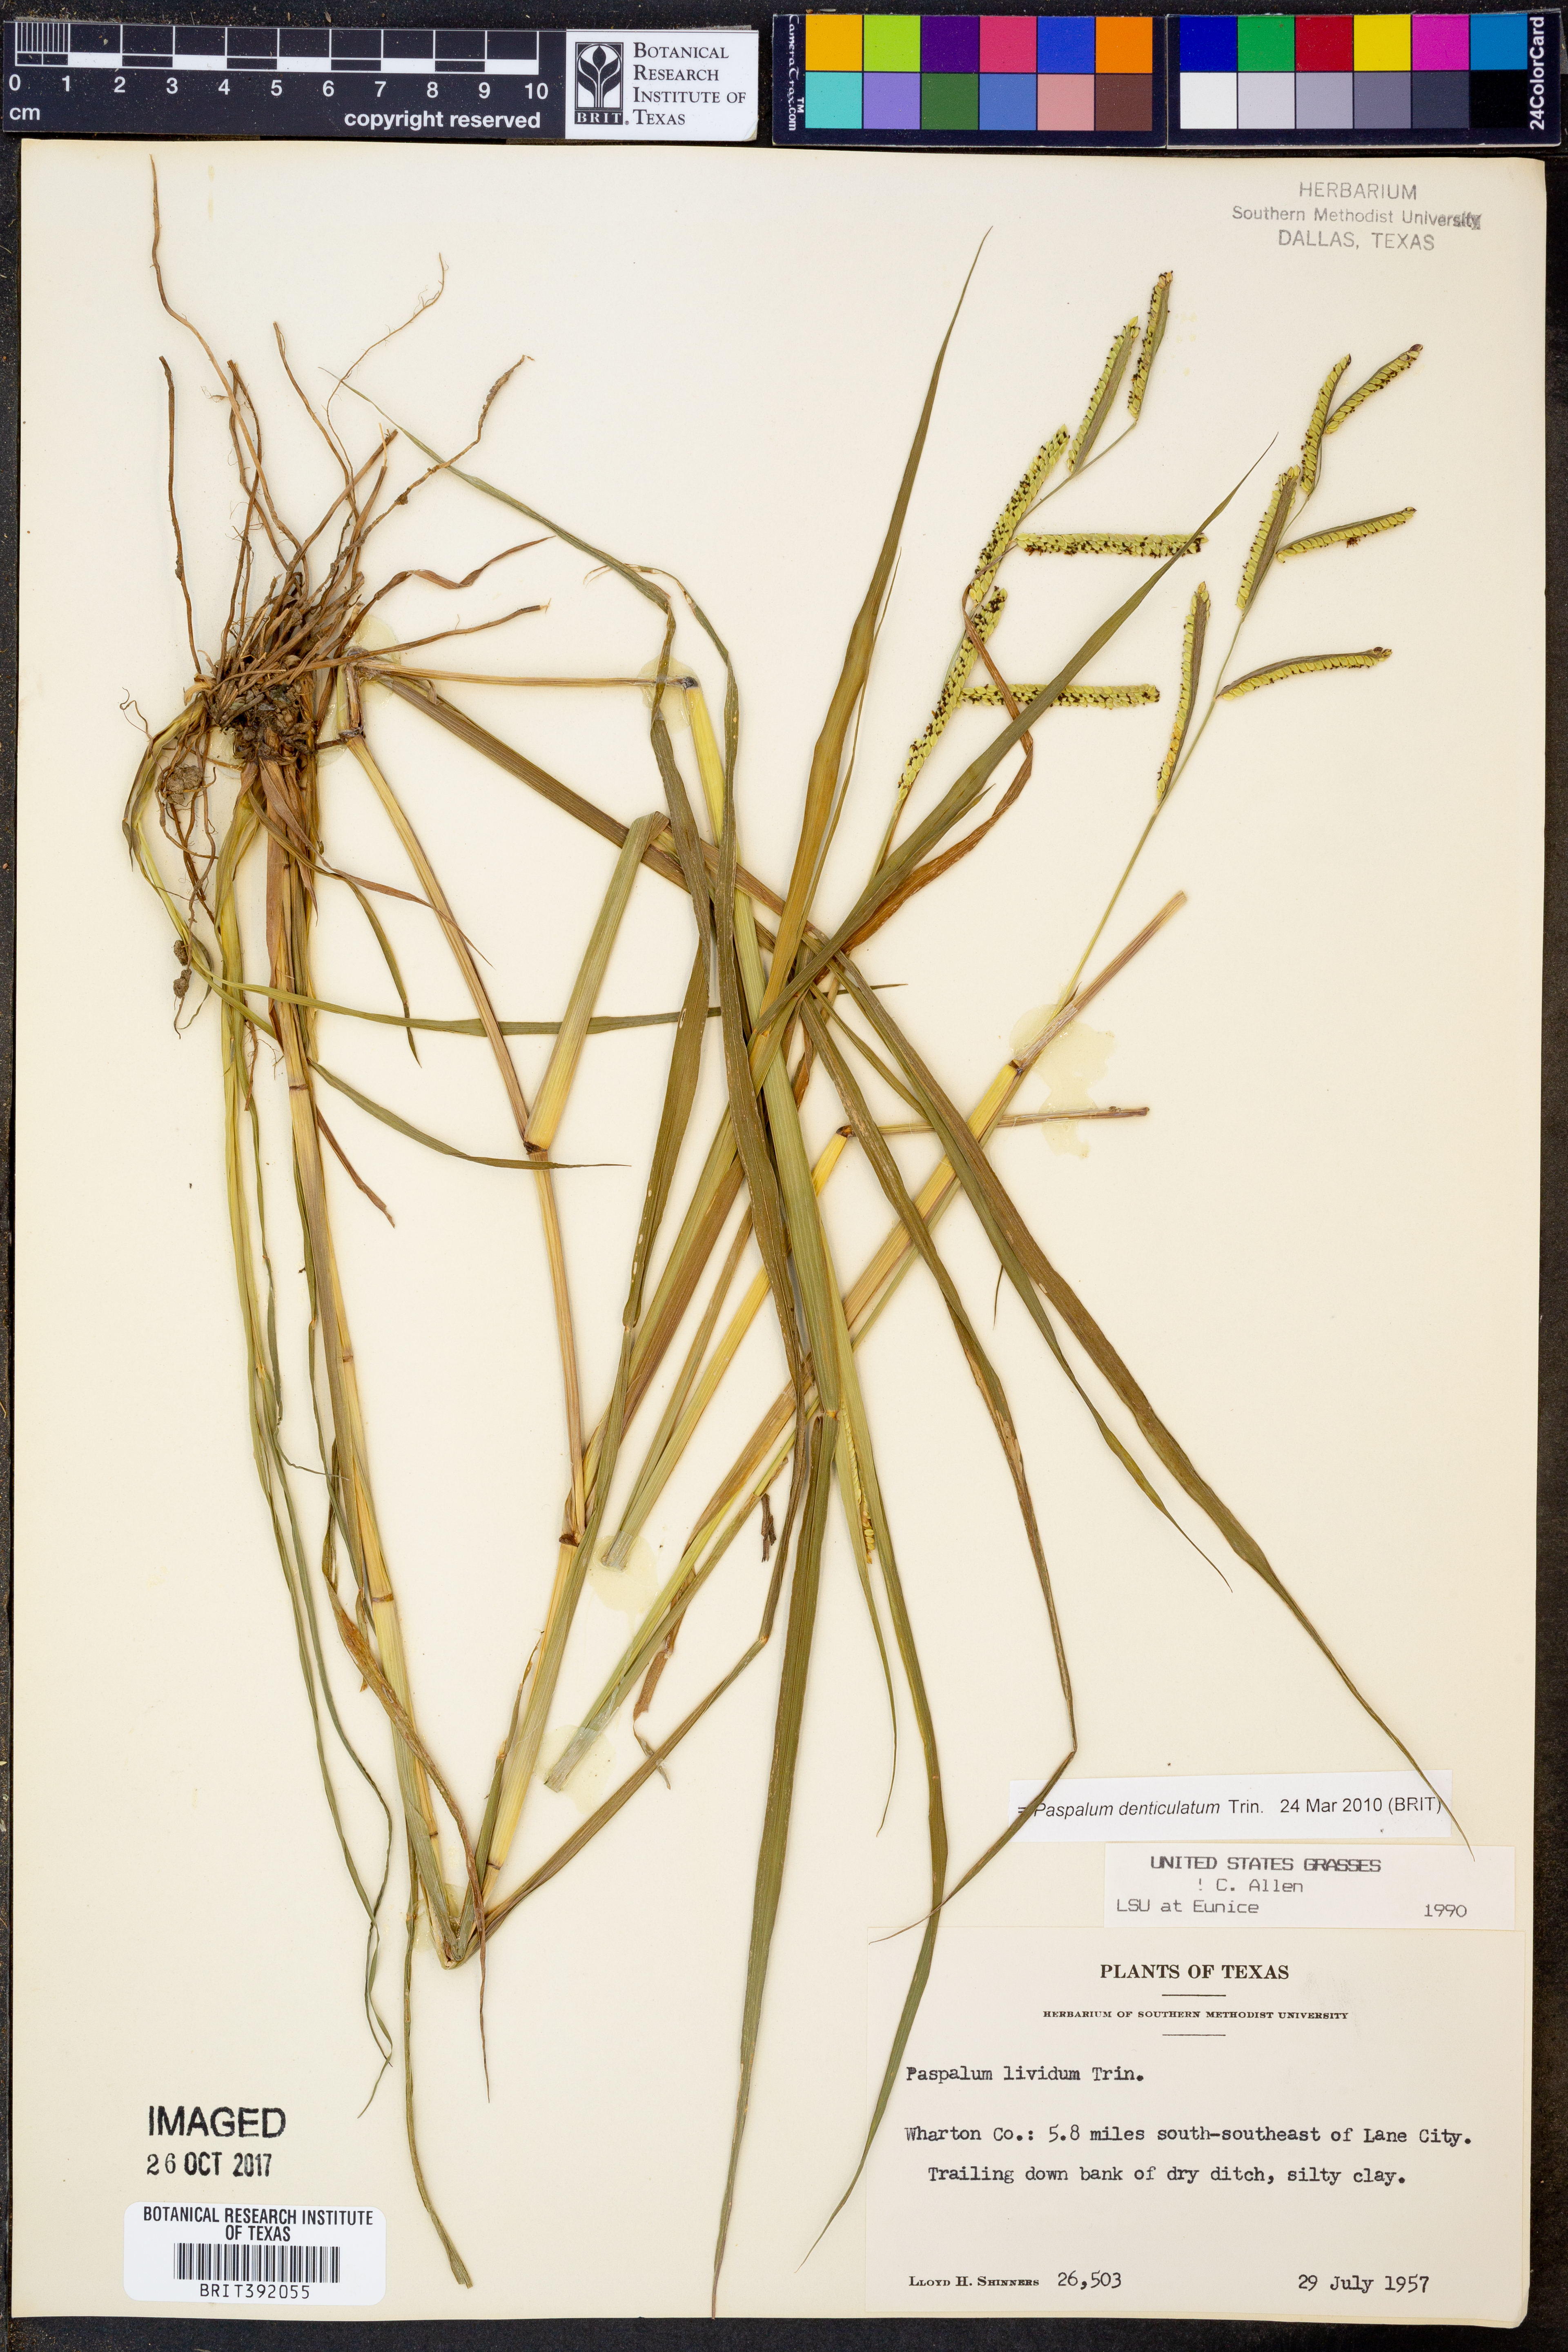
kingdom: Plantae
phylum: Tracheophyta
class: Liliopsida
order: Poales
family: Poaceae
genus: Paspalum
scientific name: Paspalum denticulatum
